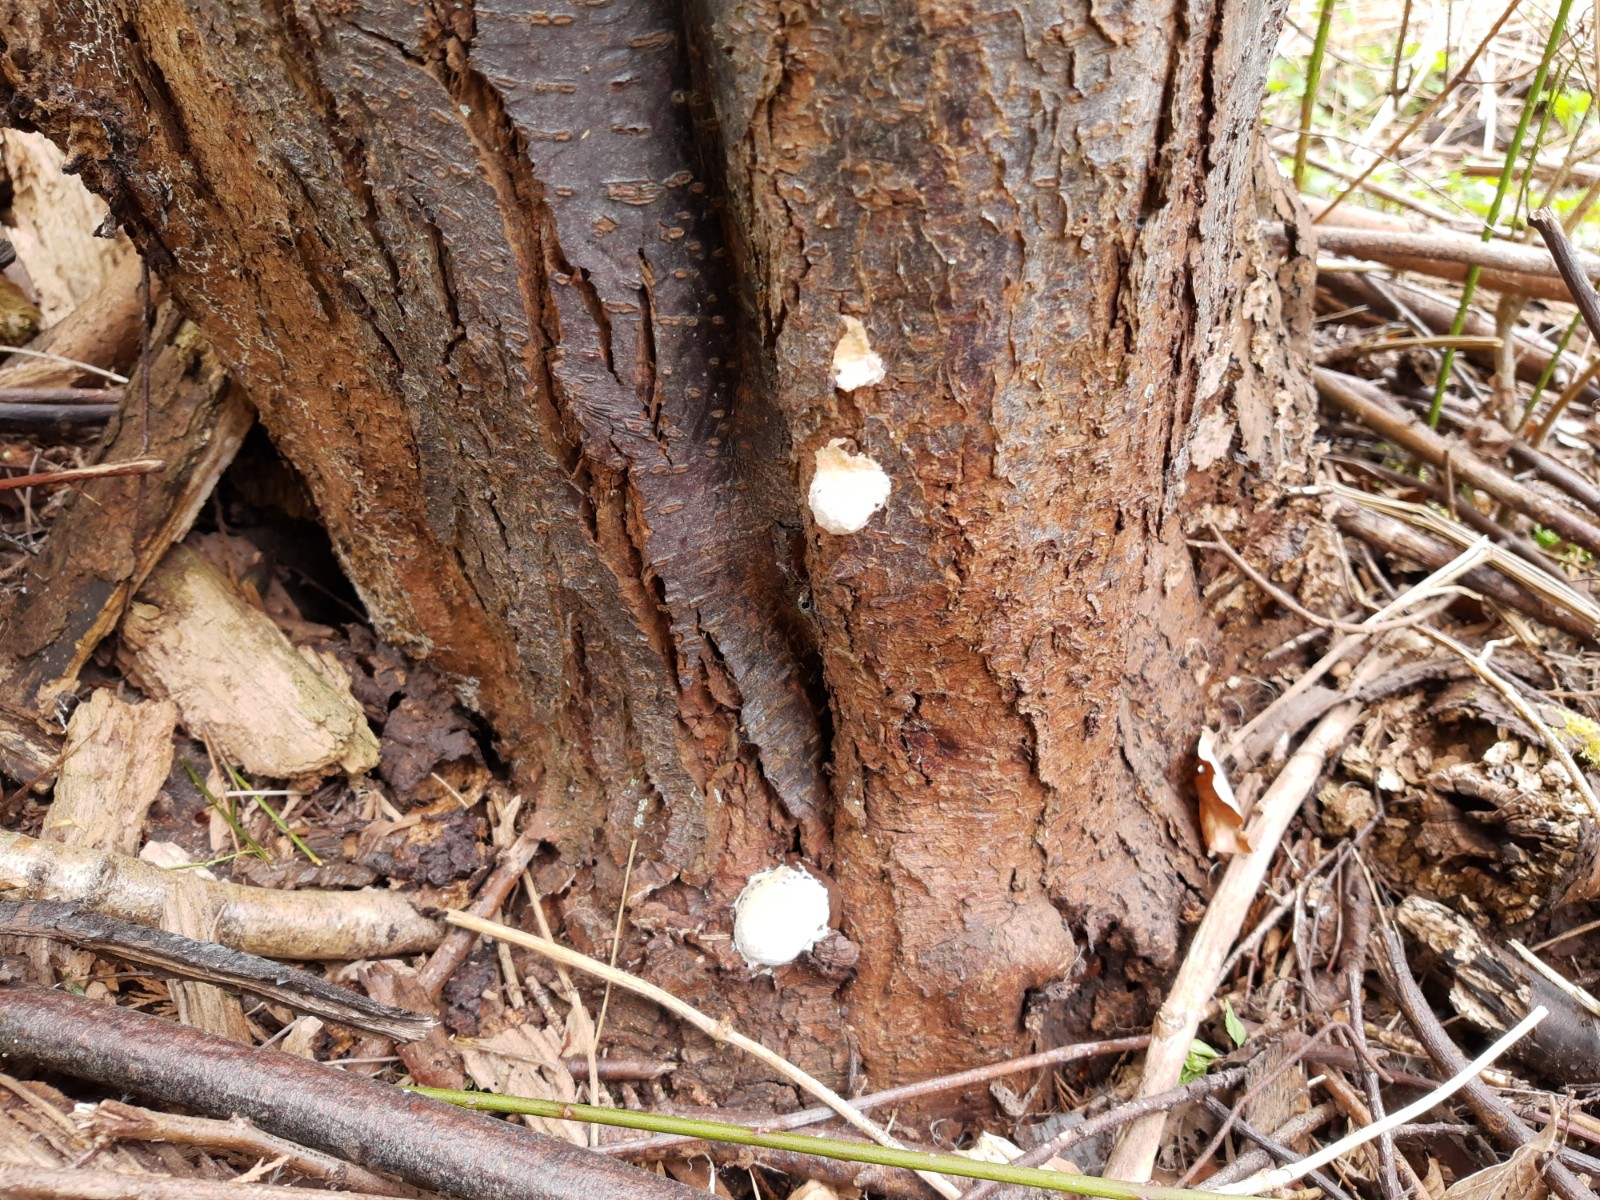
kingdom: Protozoa
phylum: Mycetozoa
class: Myxomycetes
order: Cribrariales
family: Tubiferaceae
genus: Reticularia
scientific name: Reticularia lycoperdon
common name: skinnende støvpude
